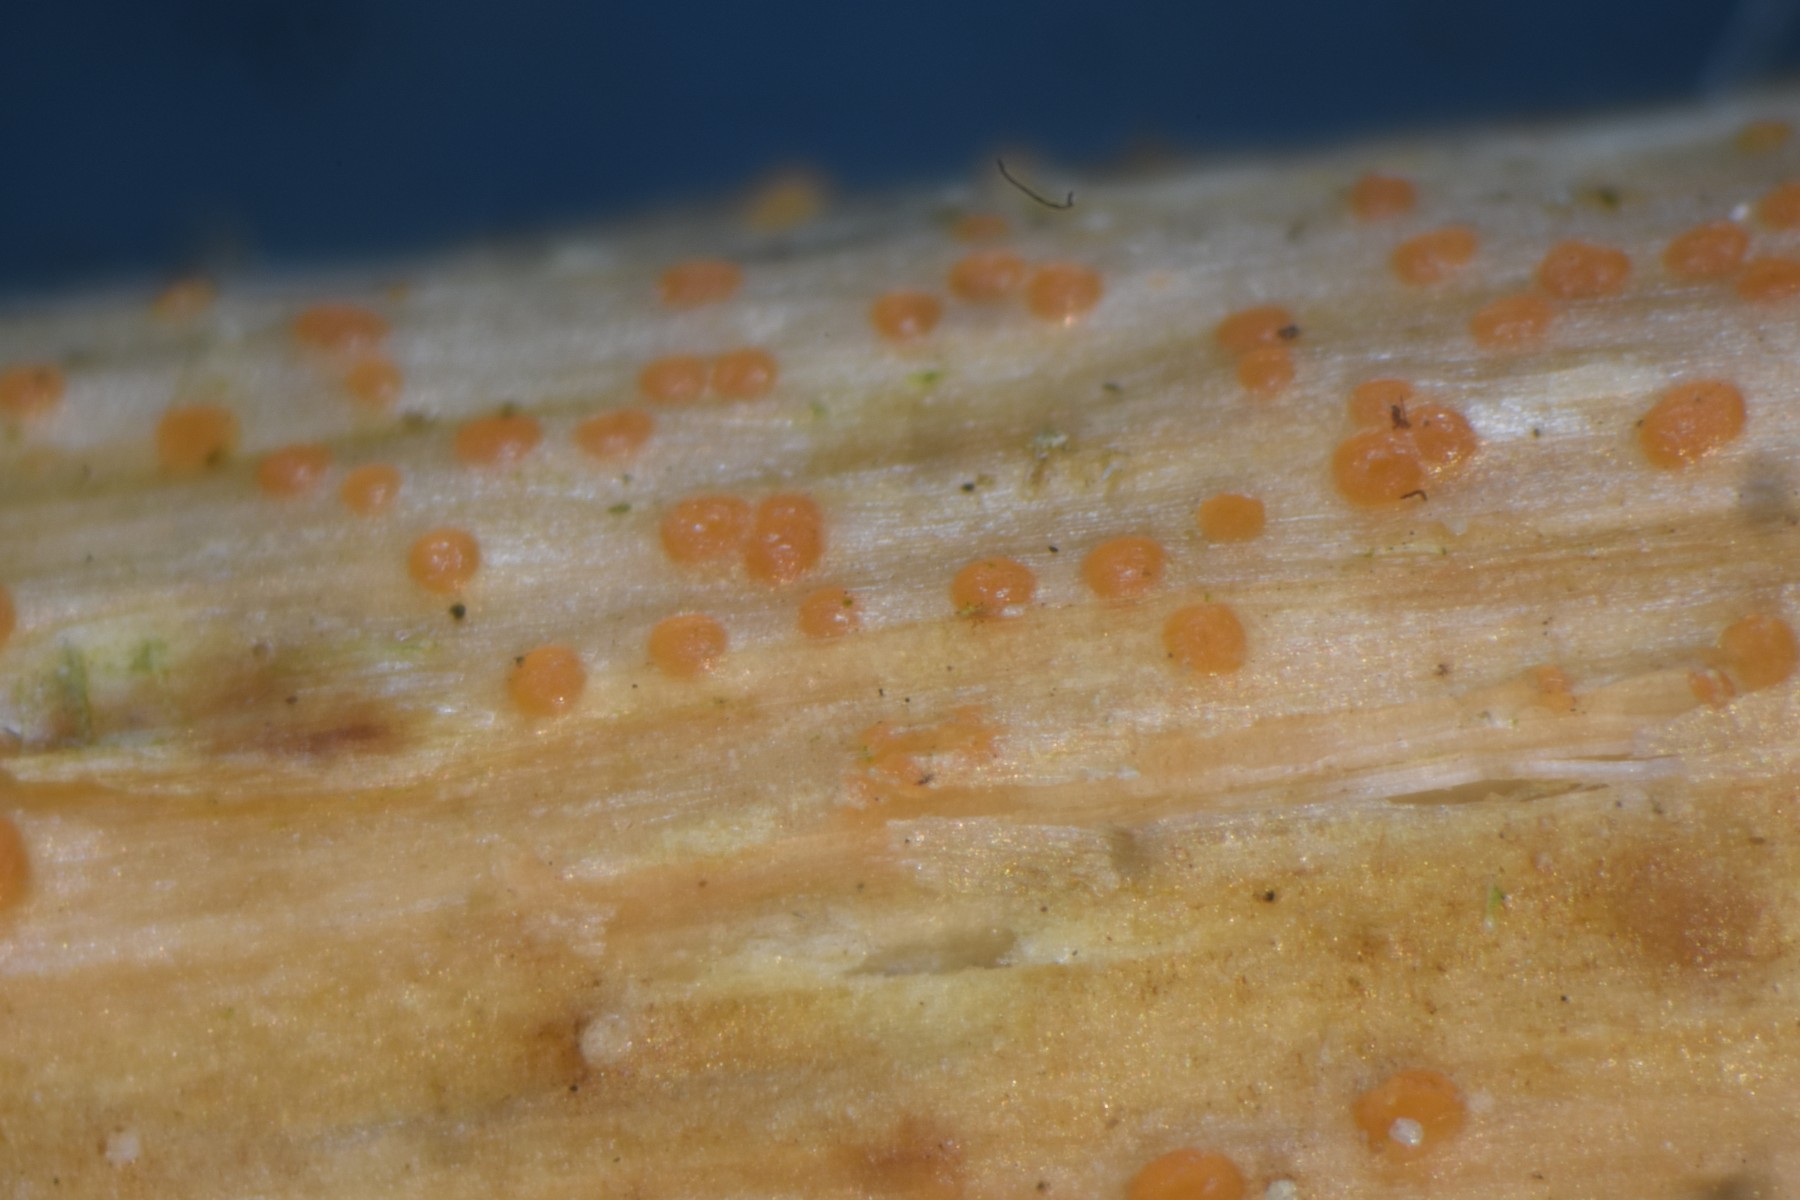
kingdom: Fungi
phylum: Ascomycota
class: Leotiomycetes
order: Helotiales
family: Calloriaceae
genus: Calloria
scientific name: Calloria urticae
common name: nælde-orangeskive
